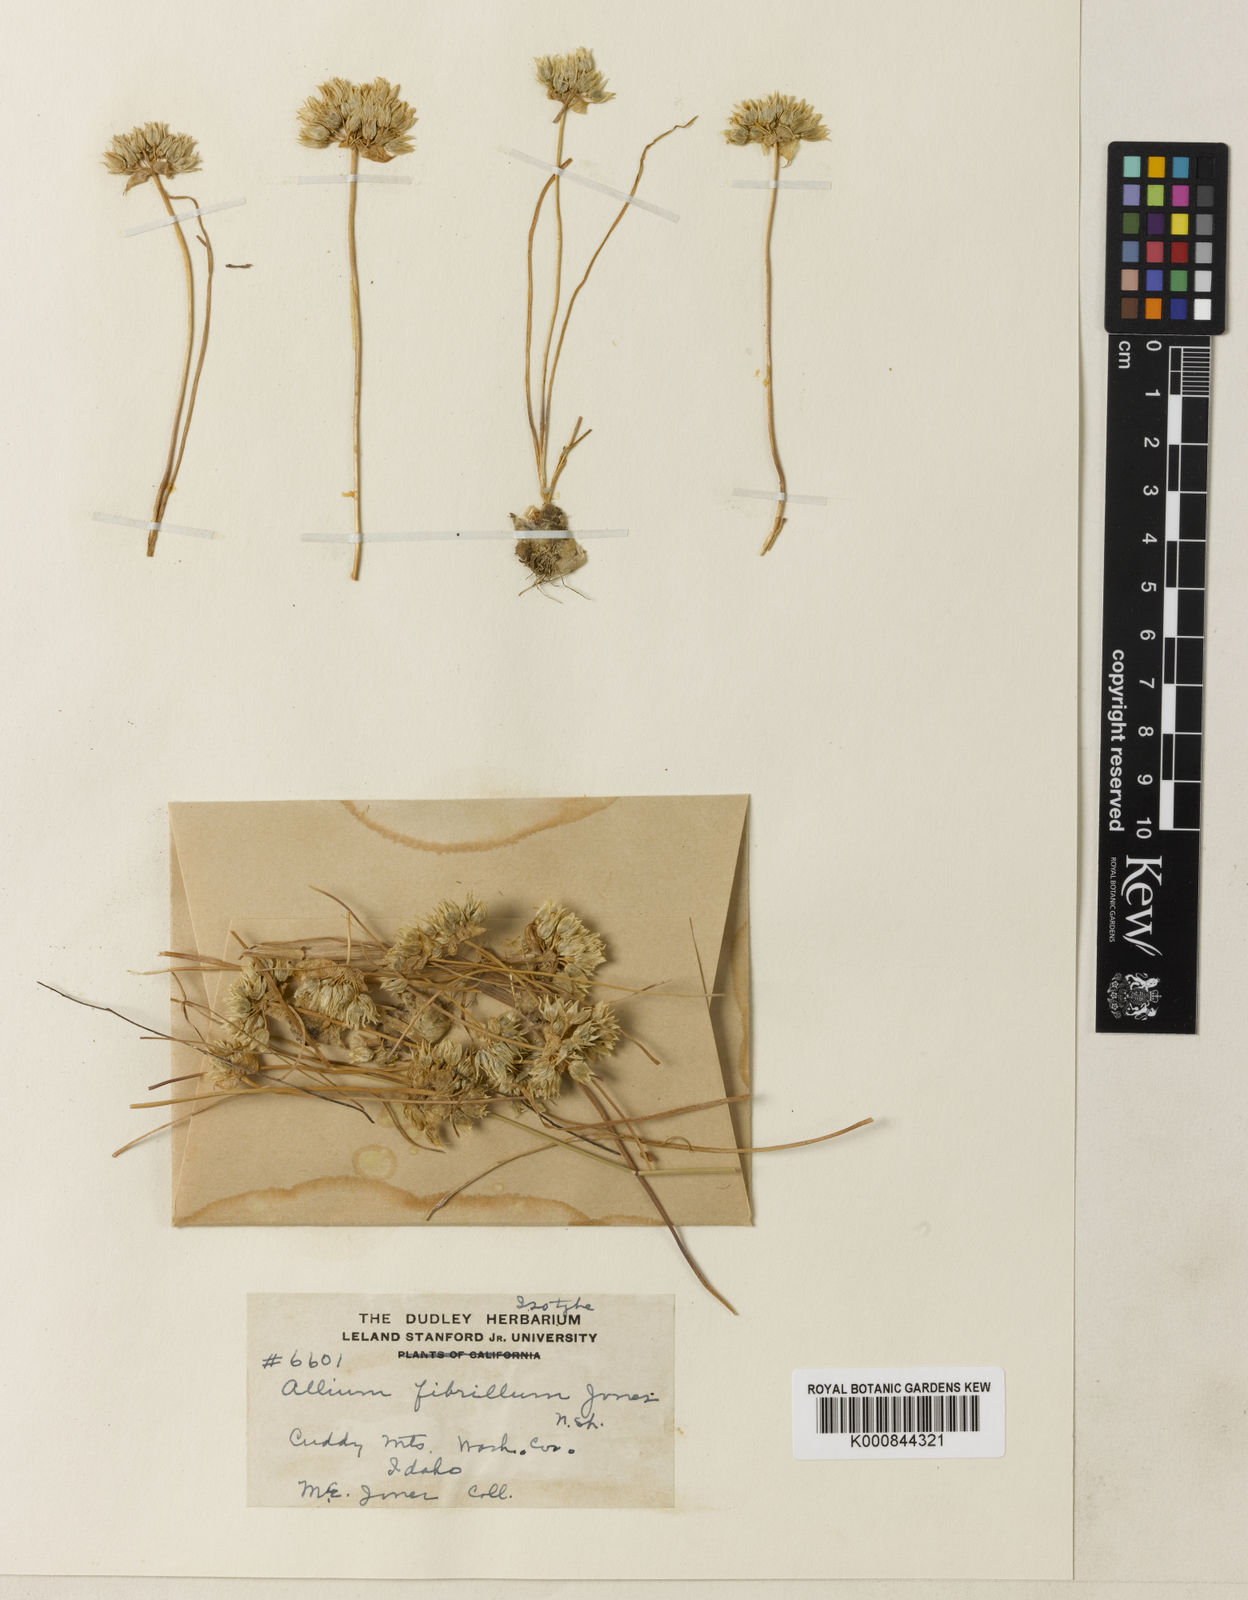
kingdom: Plantae
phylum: Tracheophyta
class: Liliopsida
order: Asparagales
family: Amaryllidaceae
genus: Allium
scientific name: Allium fibrillum
